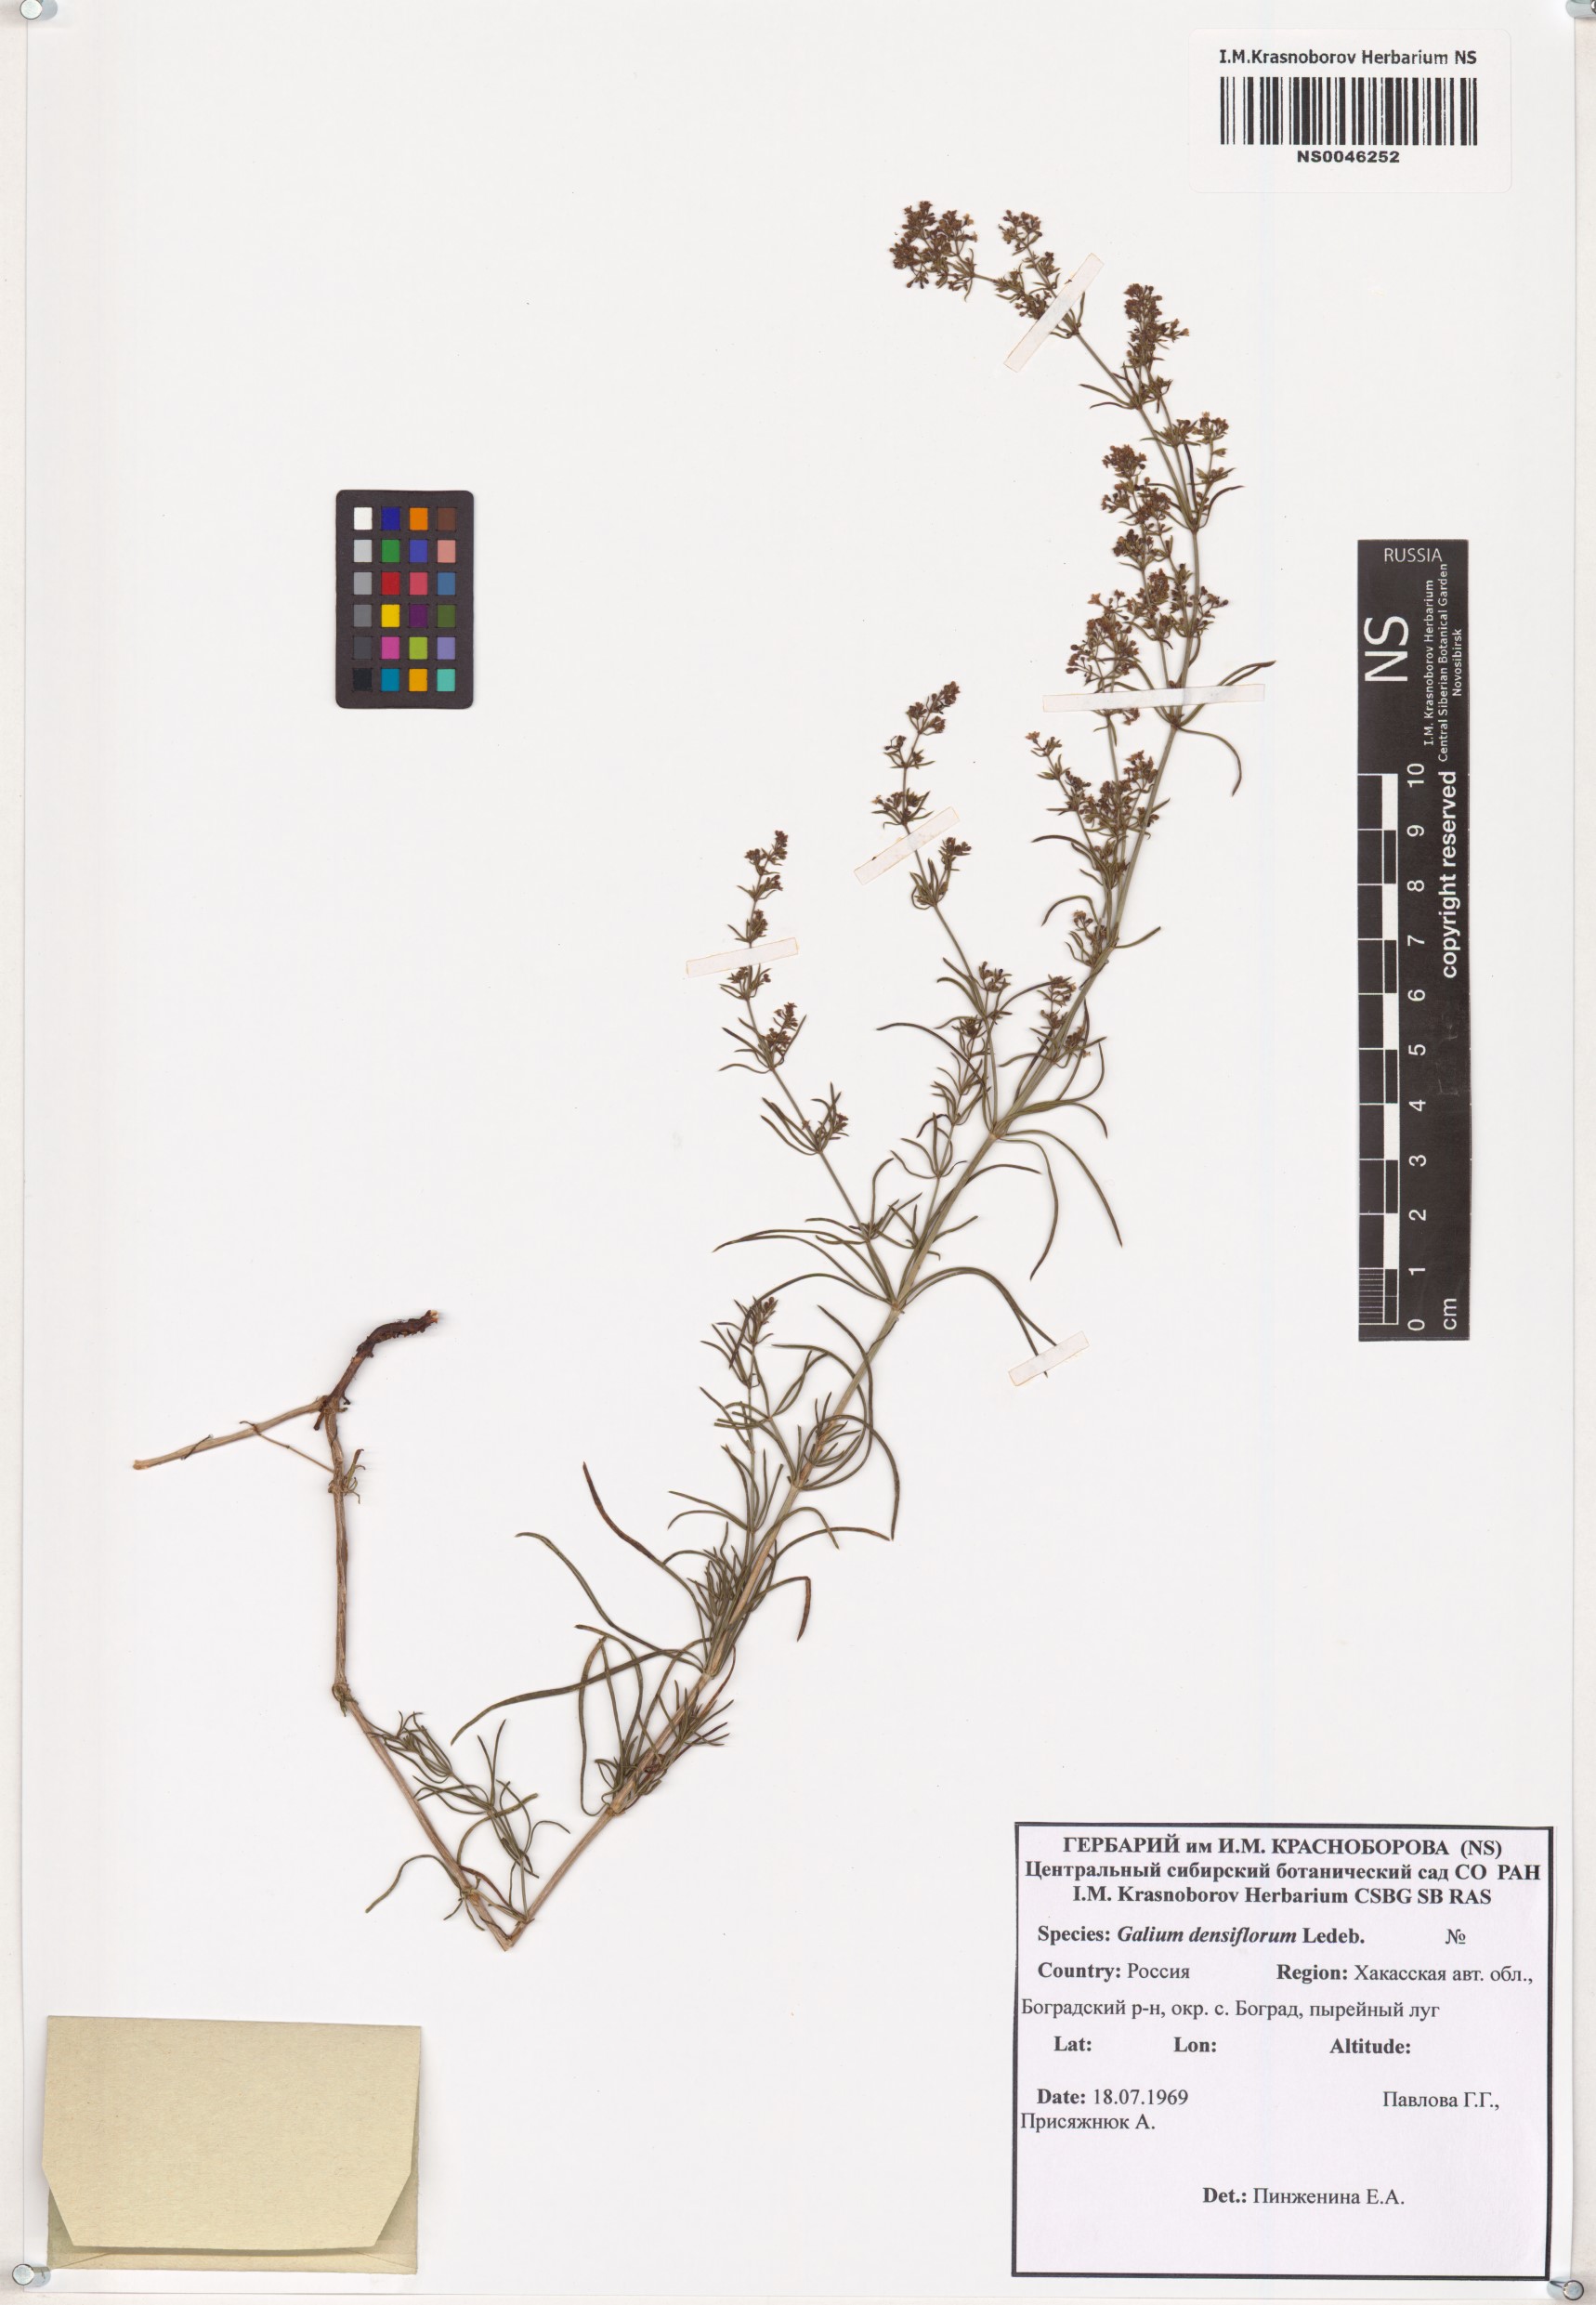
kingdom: Plantae
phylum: Tracheophyta
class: Magnoliopsida
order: Gentianales
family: Rubiaceae
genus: Galium
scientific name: Galium densiflorum
